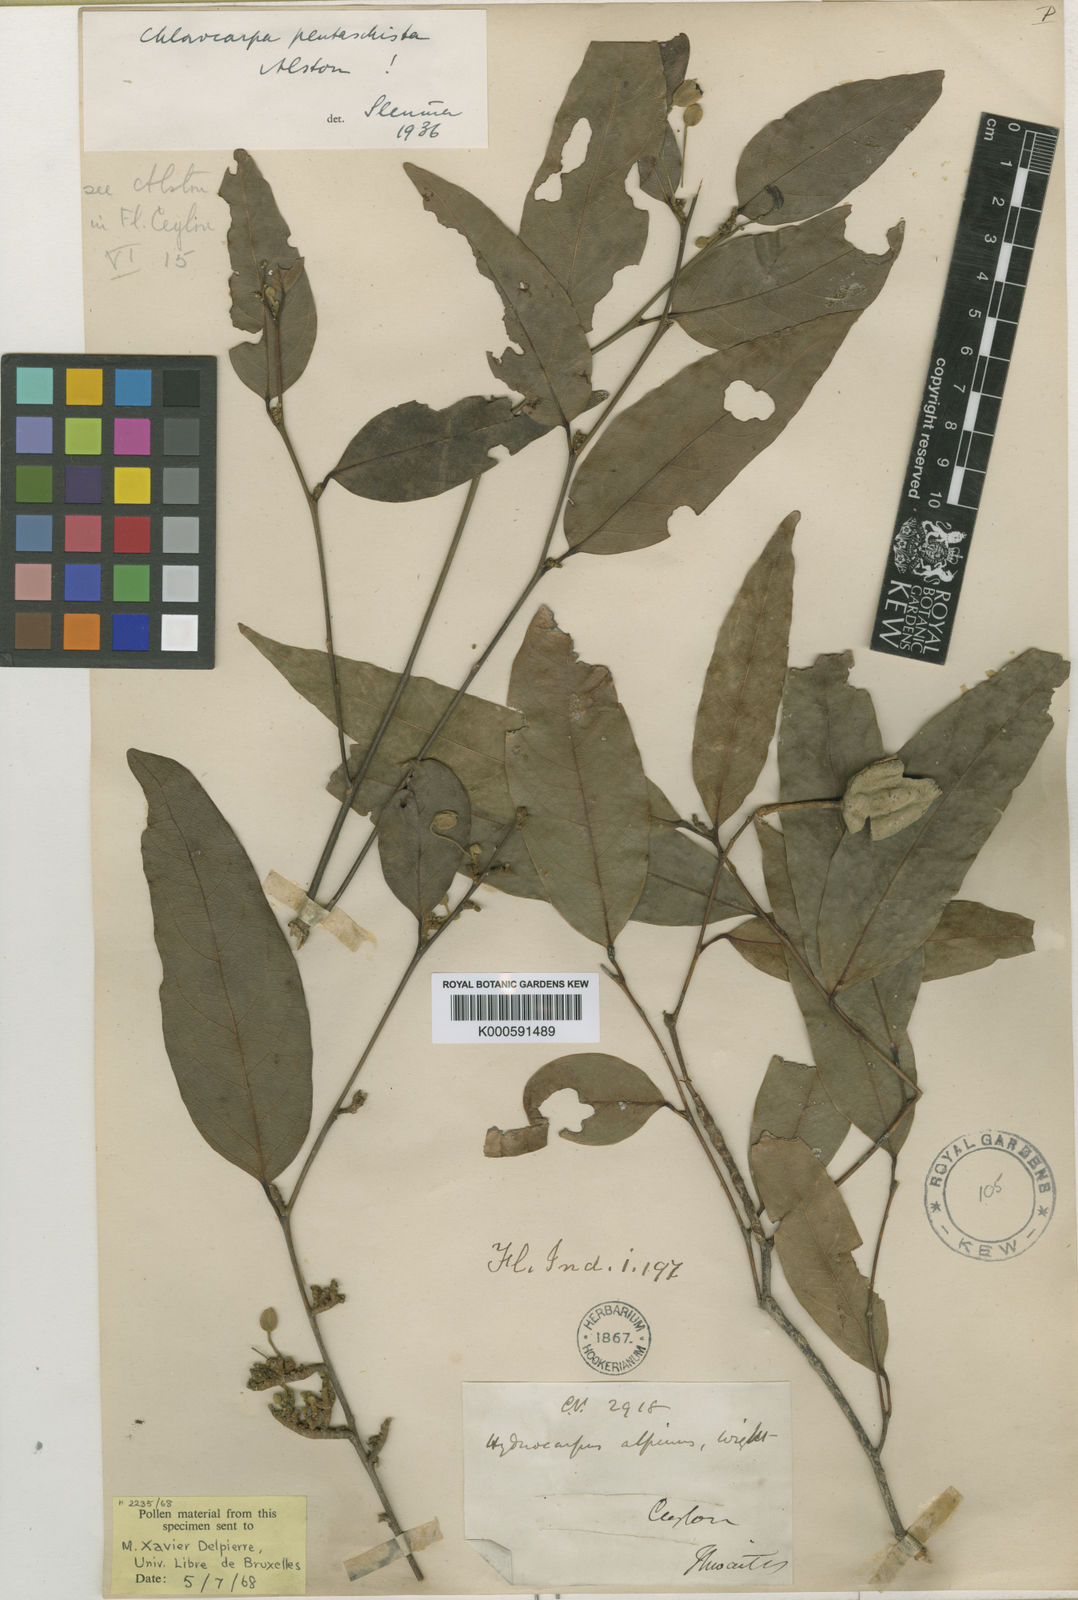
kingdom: Plantae
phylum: Tracheophyta
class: Magnoliopsida
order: Malpighiales
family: Achariaceae
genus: Chlorocarpa
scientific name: Chlorocarpa pentaschista
